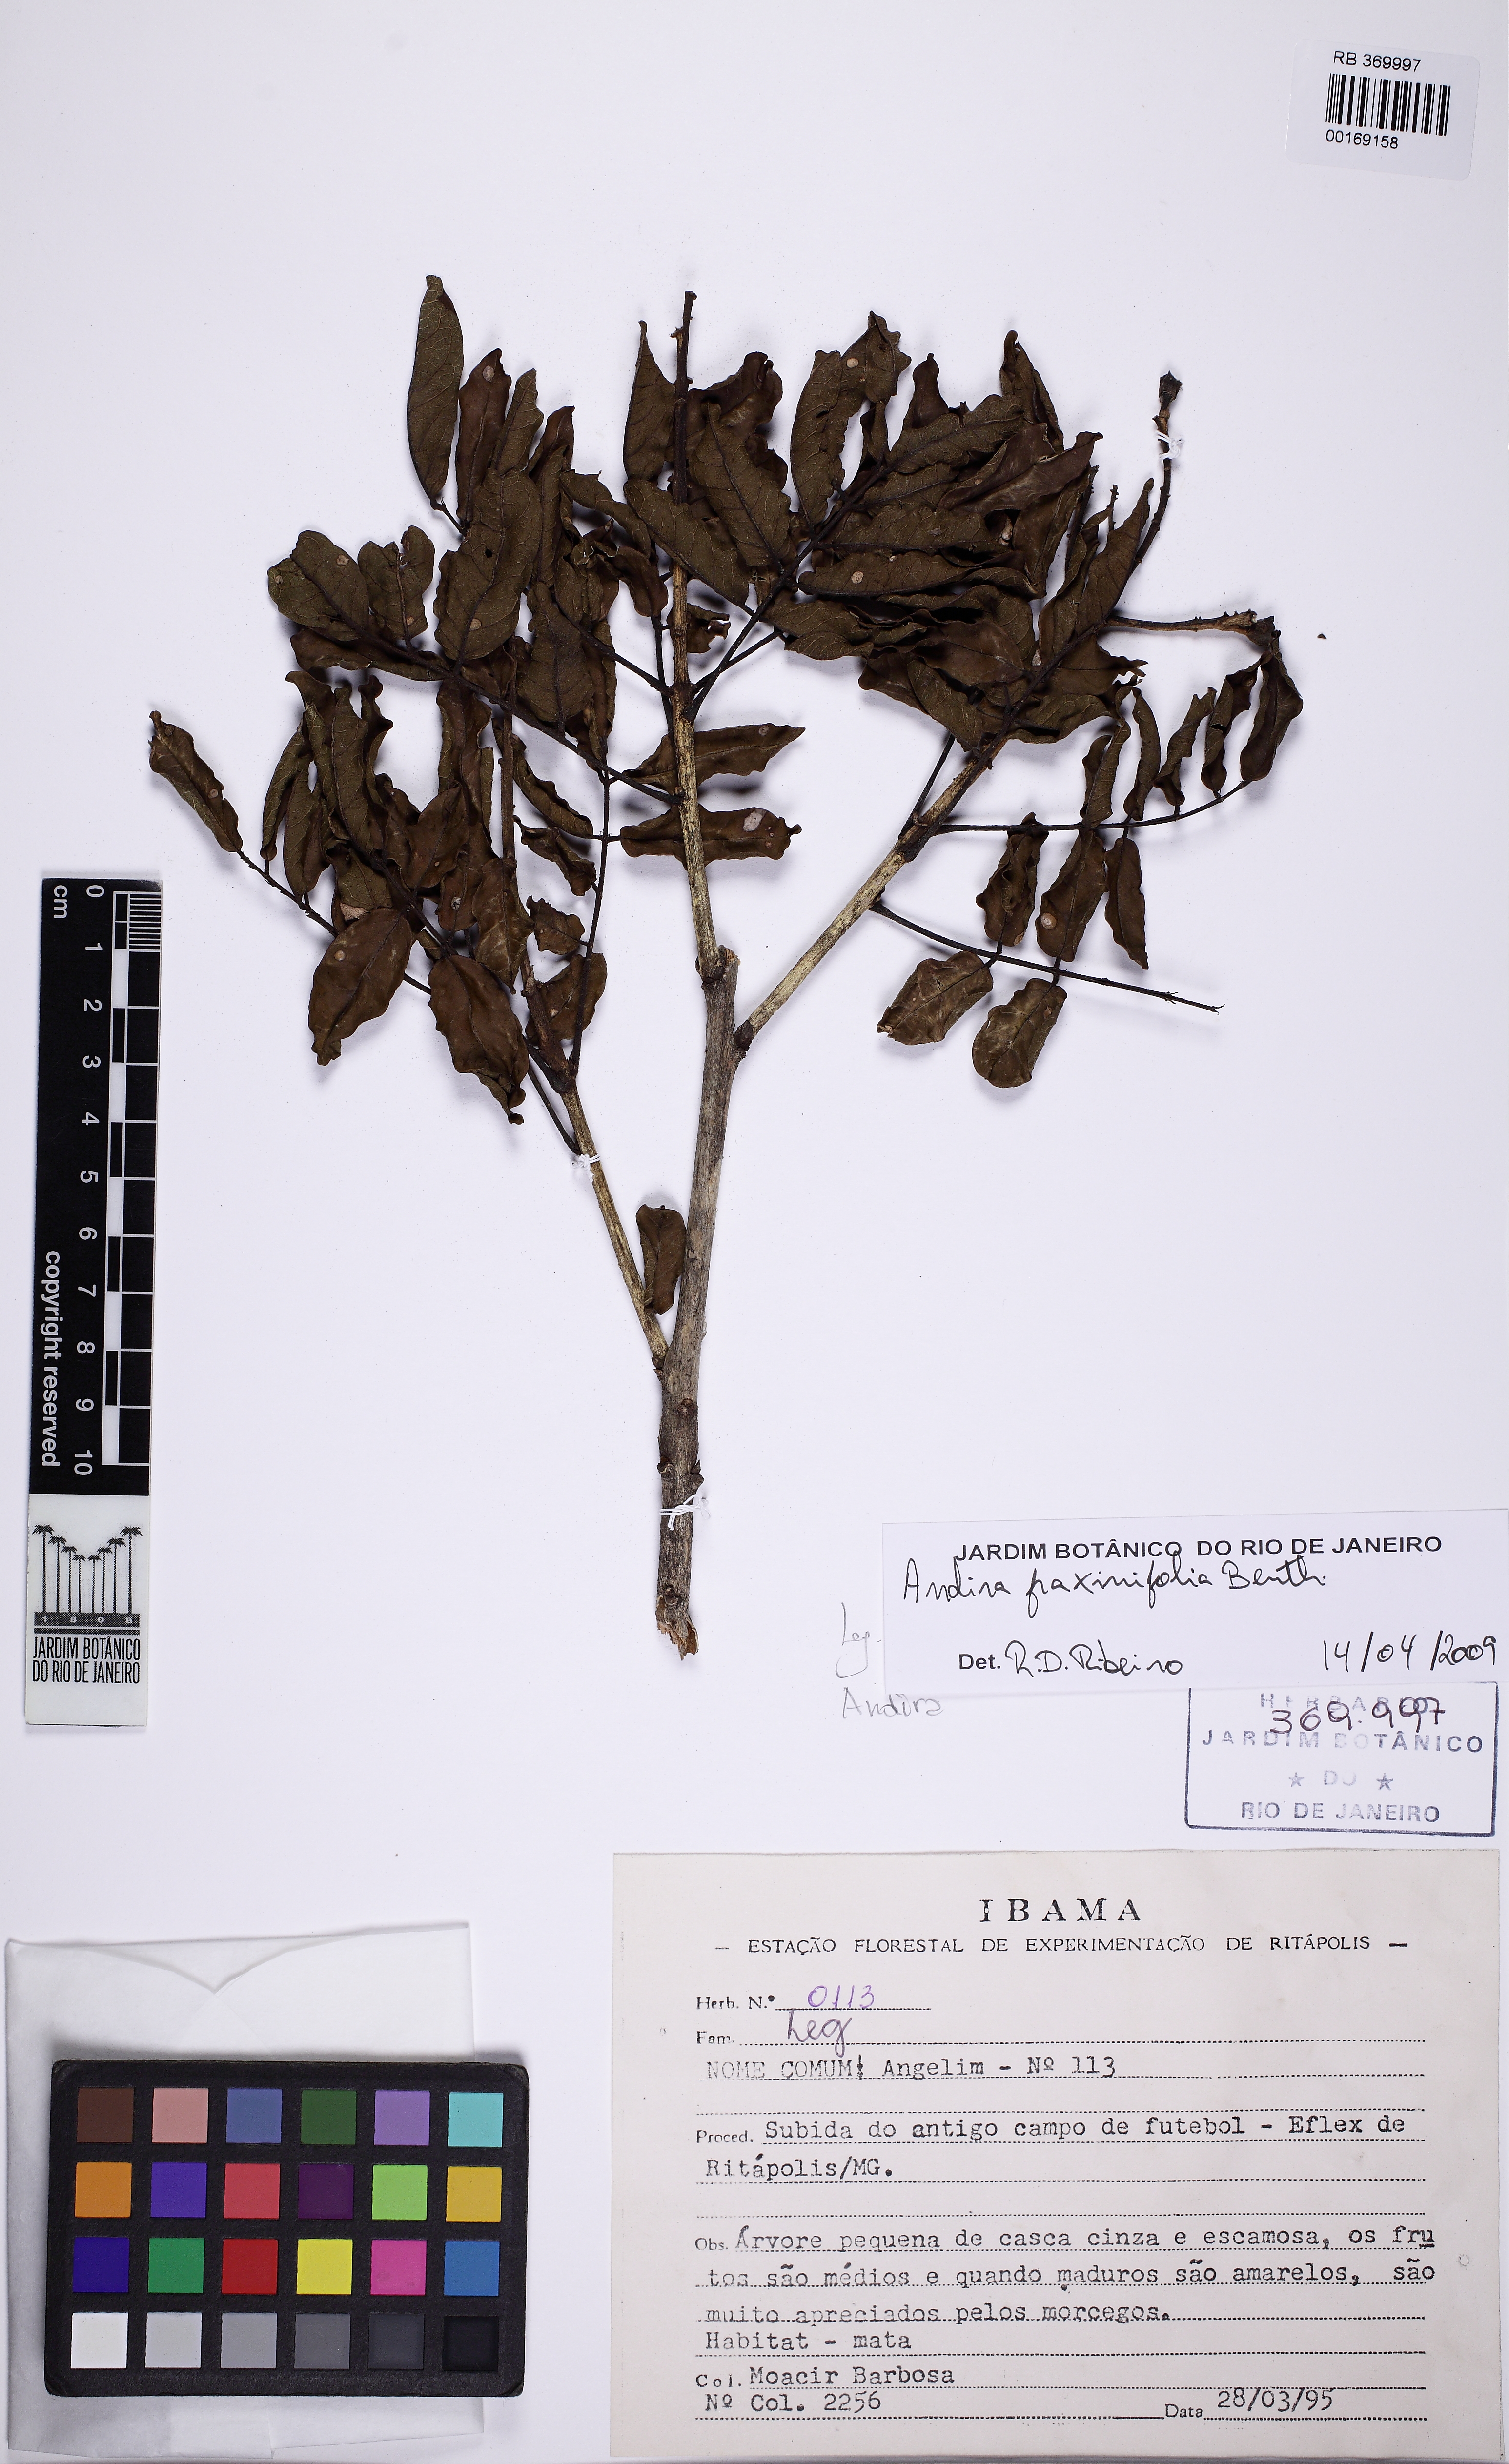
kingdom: Plantae
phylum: Tracheophyta
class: Magnoliopsida
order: Fabales
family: Fabaceae
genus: Andira
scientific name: Andira fraxinifolia
